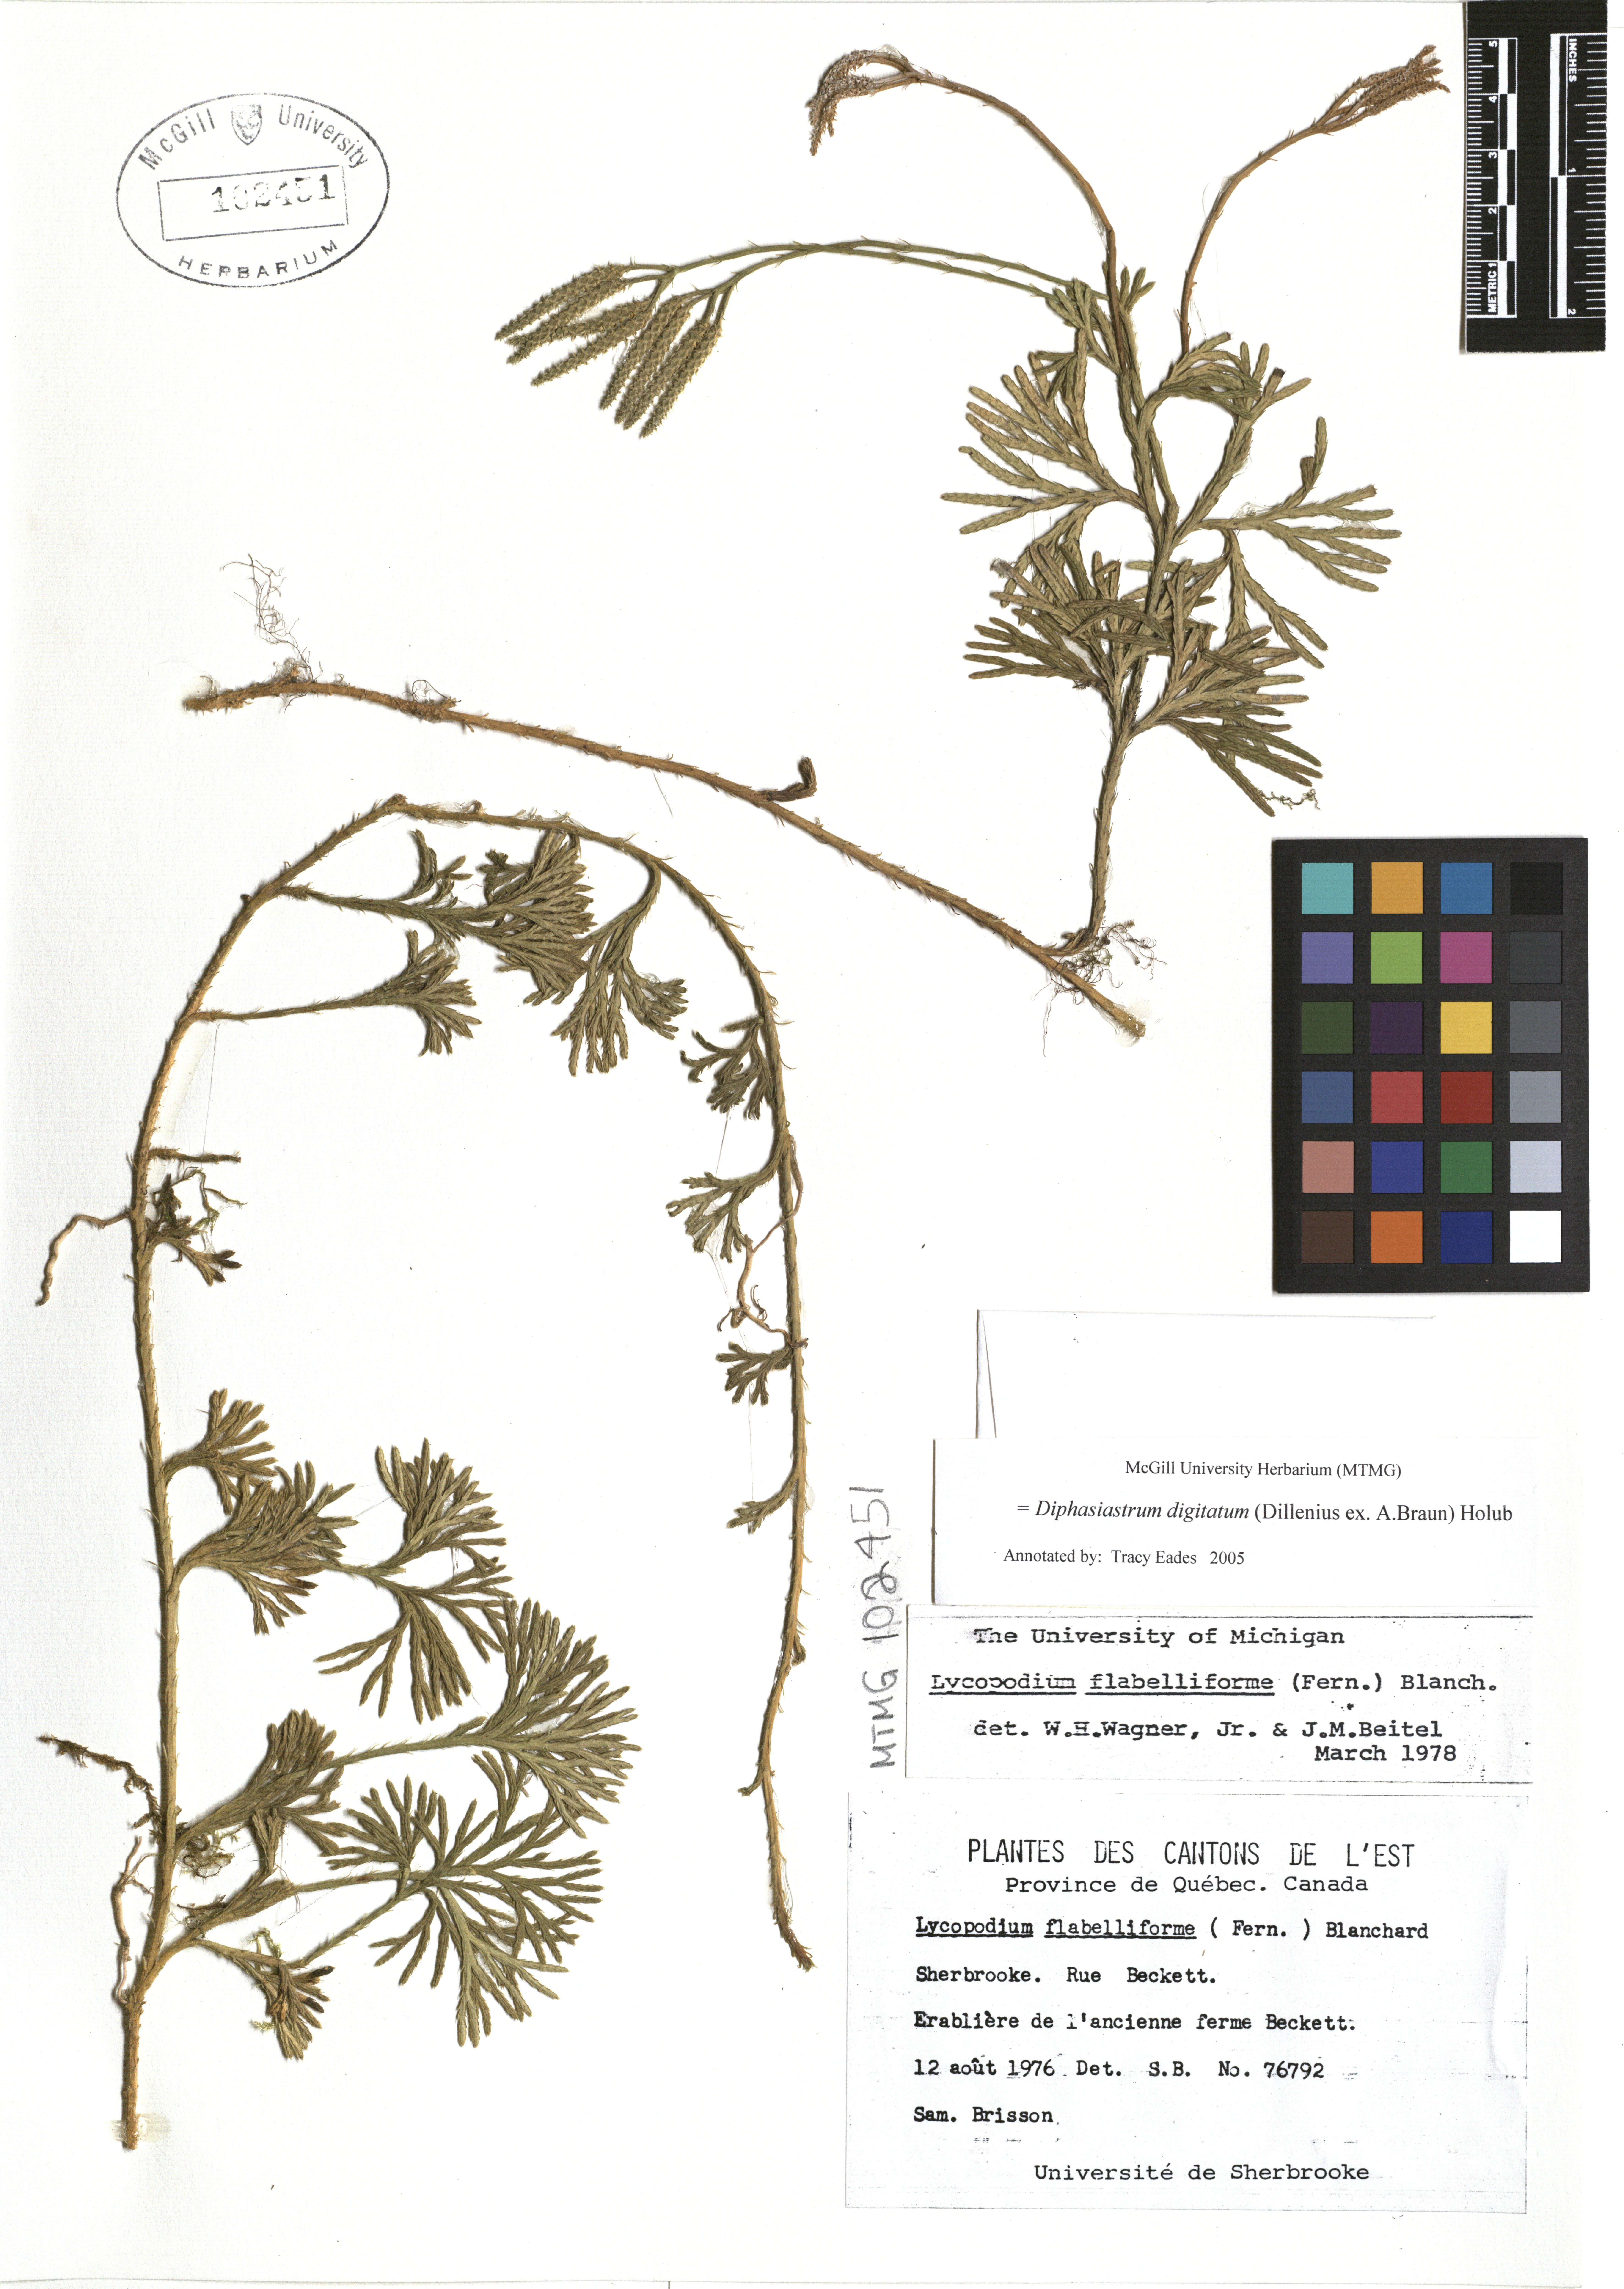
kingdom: Plantae
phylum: Tracheophyta
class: Lycopodiopsida
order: Lycopodiales
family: Lycopodiaceae
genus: Diphasiastrum
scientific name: Diphasiastrum digitatum
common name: Southern running-pine
